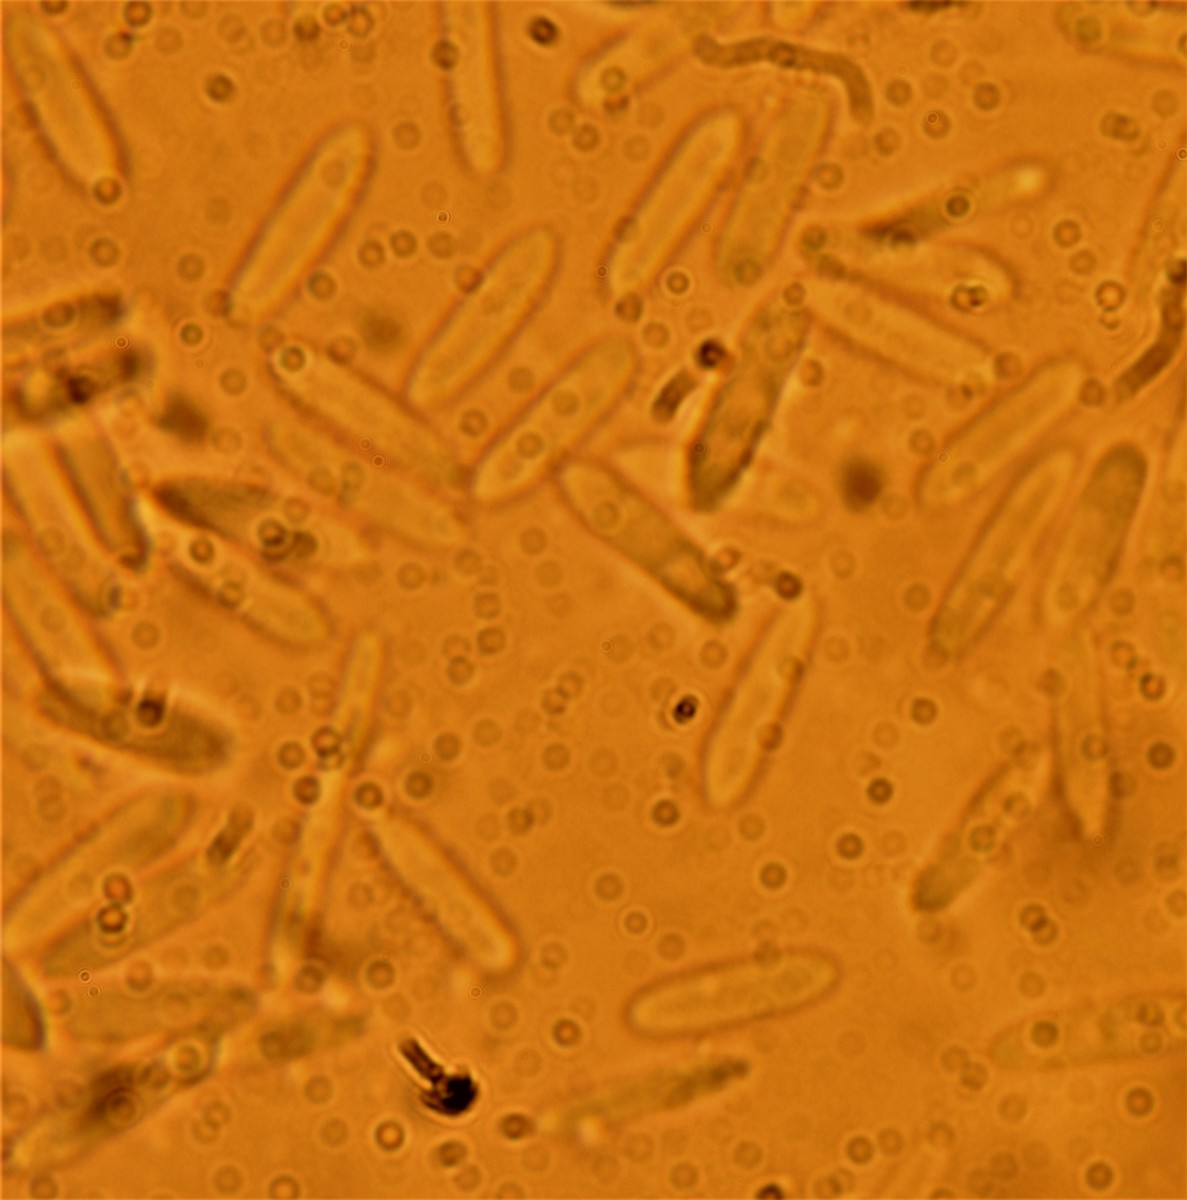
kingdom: Fungi
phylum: Ascomycota
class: Sordariomycetes
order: Hypocreales
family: Ophiocordycipitaceae
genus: Polycephalomyces
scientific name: Polycephalomyces ramosus
